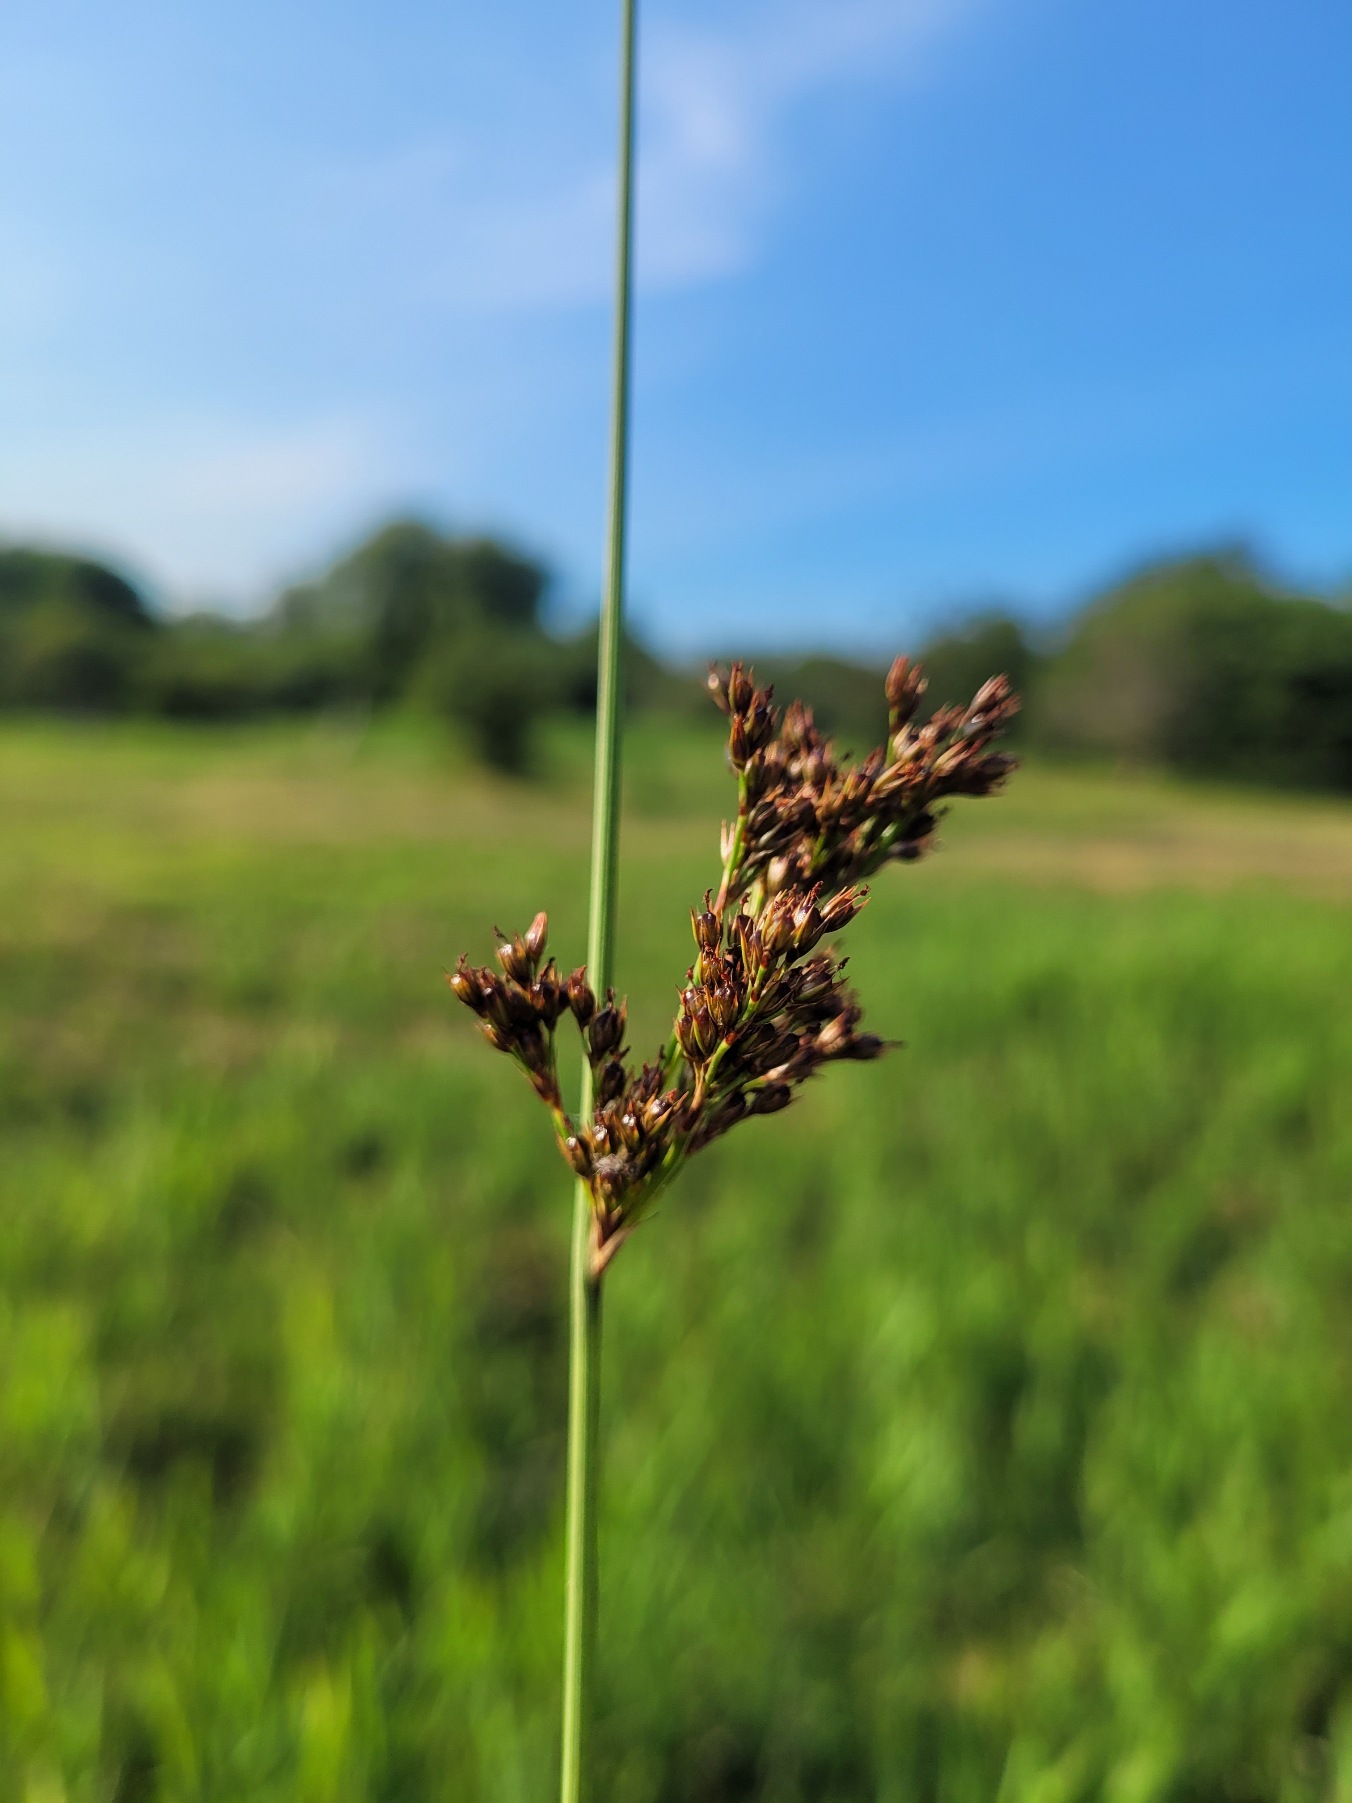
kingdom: Plantae
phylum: Tracheophyta
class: Liliopsida
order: Poales
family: Juncaceae
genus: Juncus
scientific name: Juncus inflexus
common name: Blågrå siv
